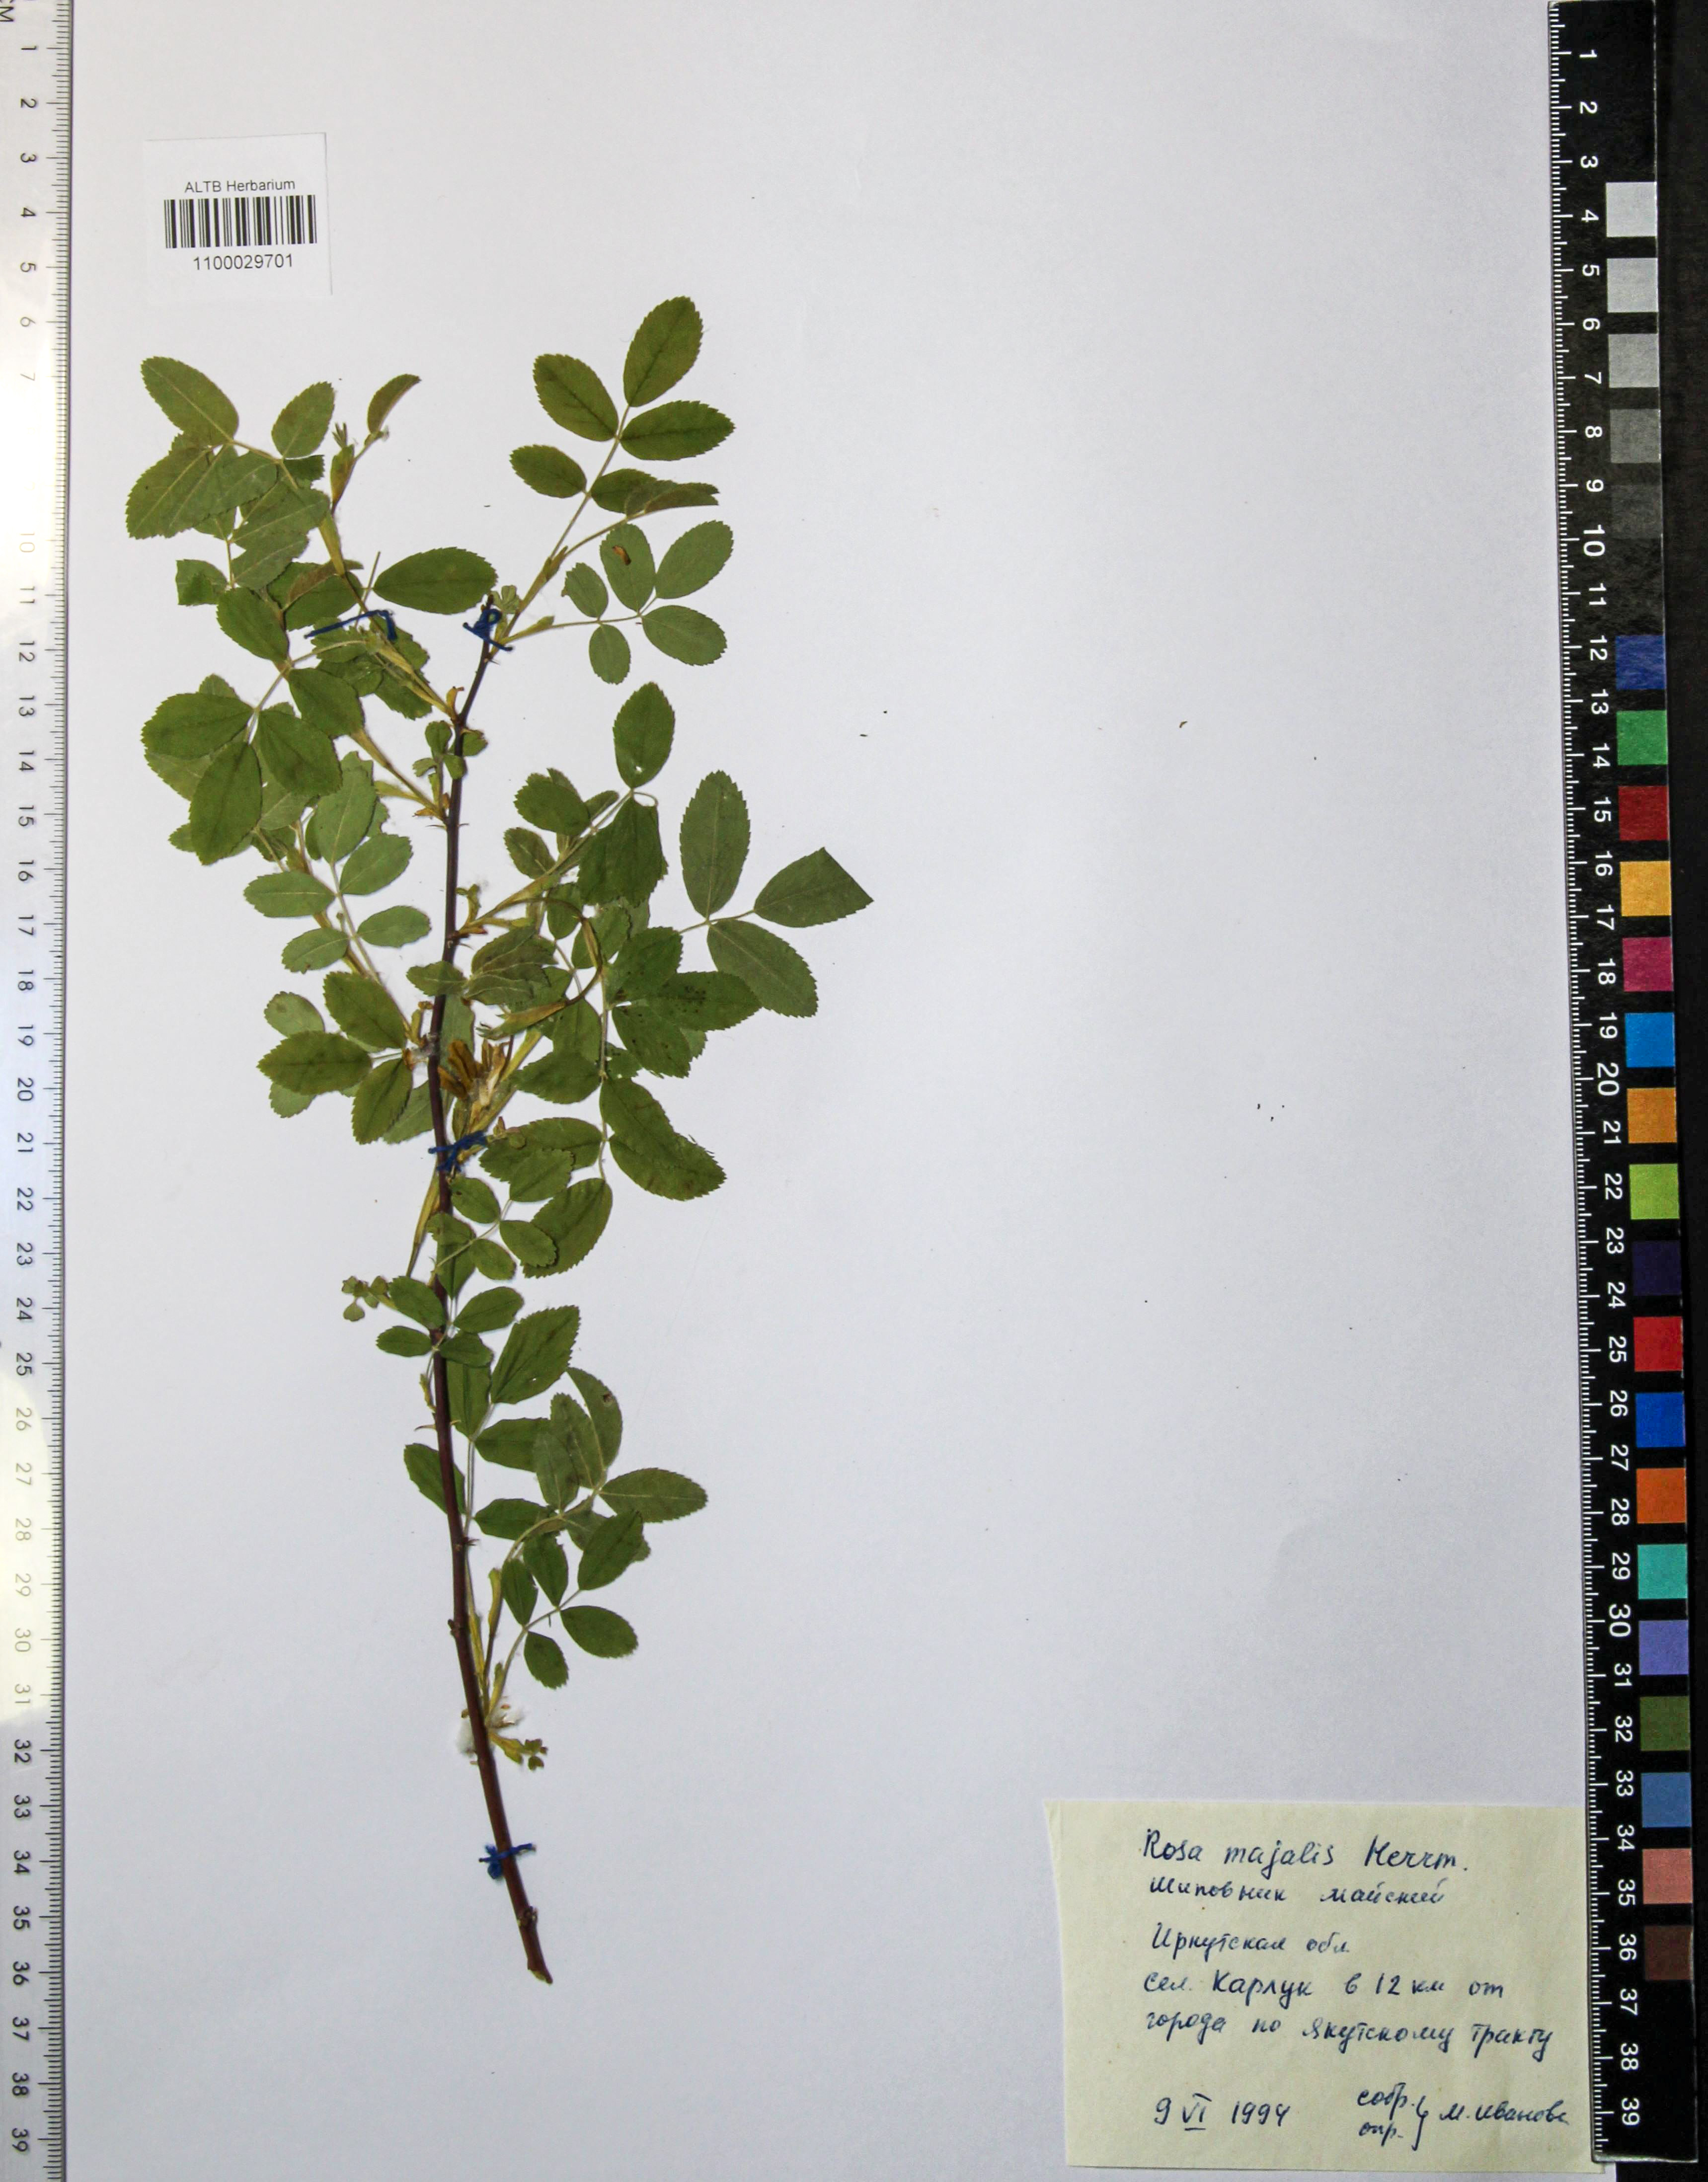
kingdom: Plantae
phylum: Tracheophyta
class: Magnoliopsida
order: Rosales
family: Rosaceae
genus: Rosa
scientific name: Rosa majalis
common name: Cinnamon rose
